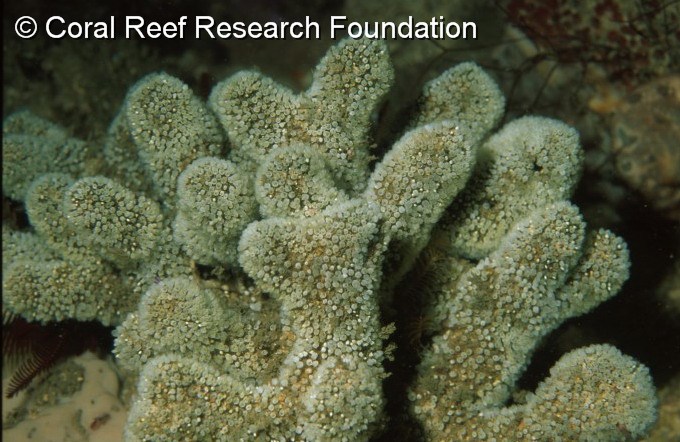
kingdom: Animalia
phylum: Chordata
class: Ascidiacea
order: Aplousobranchia
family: Clavelinidae
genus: Pycnoclavella
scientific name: Pycnoclavella inflorescens
